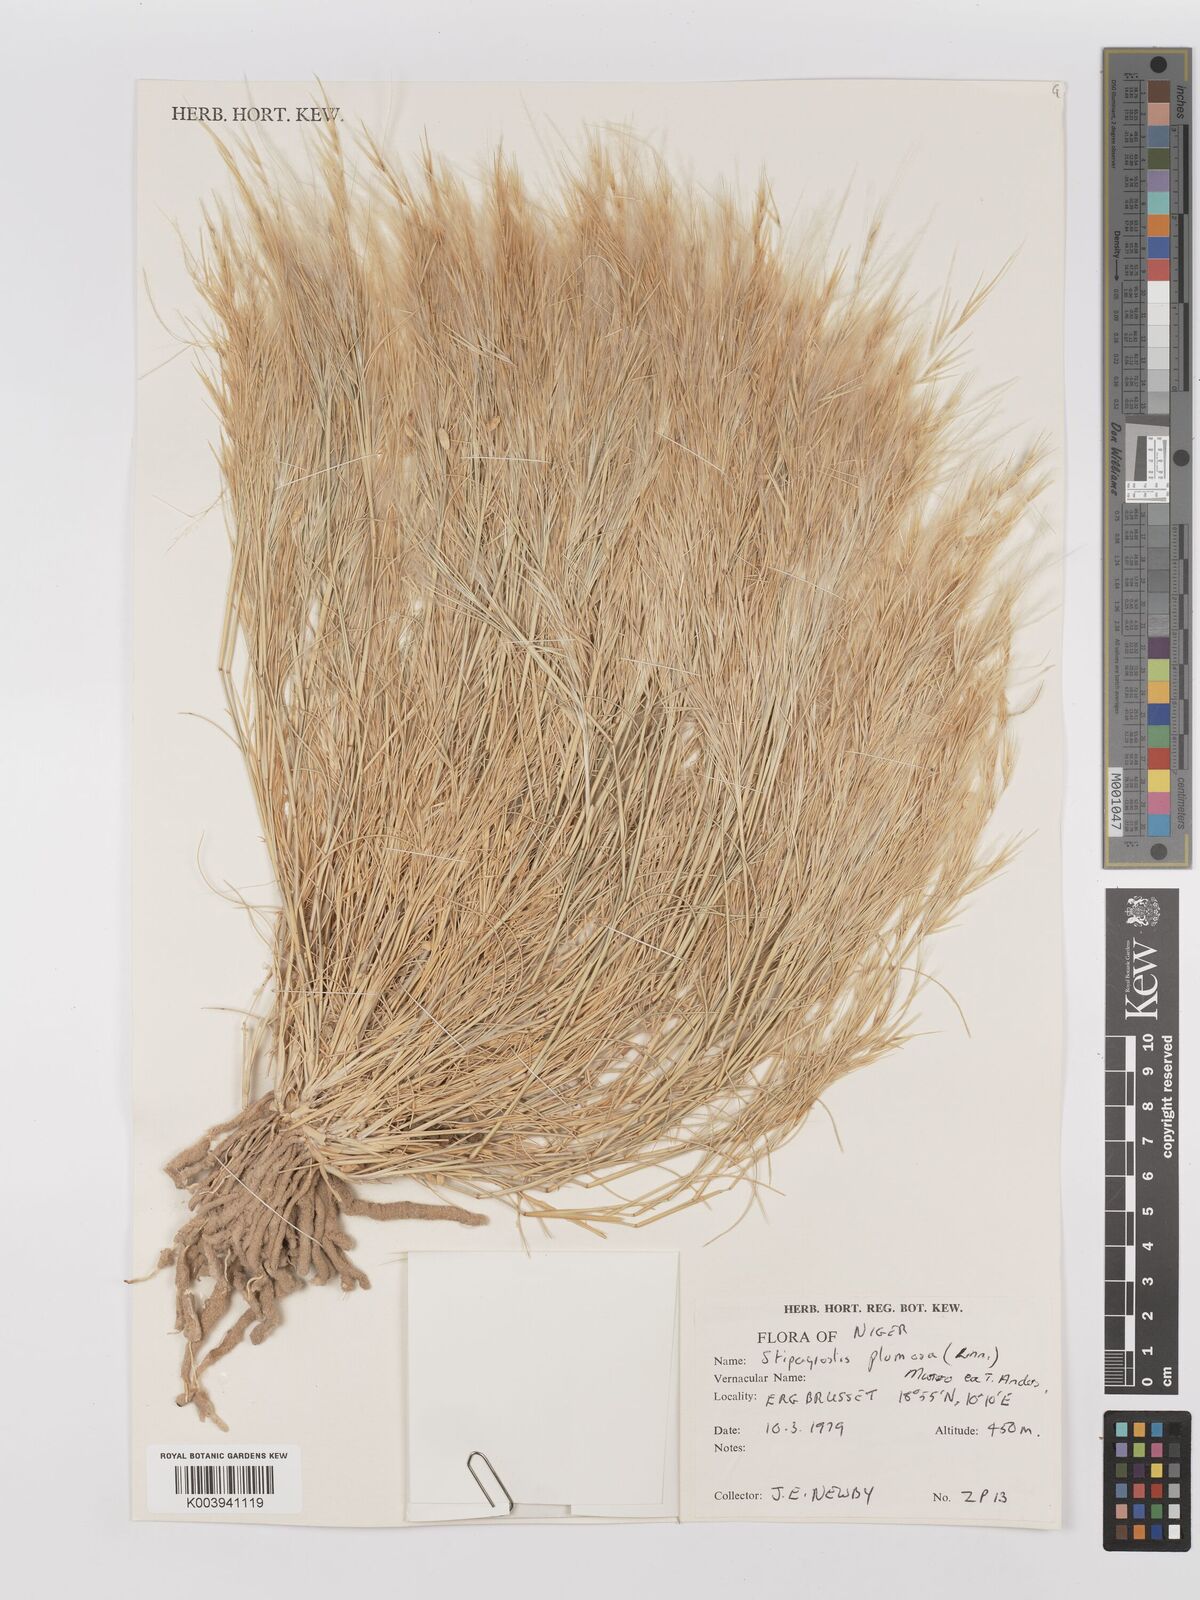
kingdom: Plantae
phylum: Tracheophyta
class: Liliopsida
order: Poales
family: Poaceae
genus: Stipagrostis
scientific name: Stipagrostis plumosa
